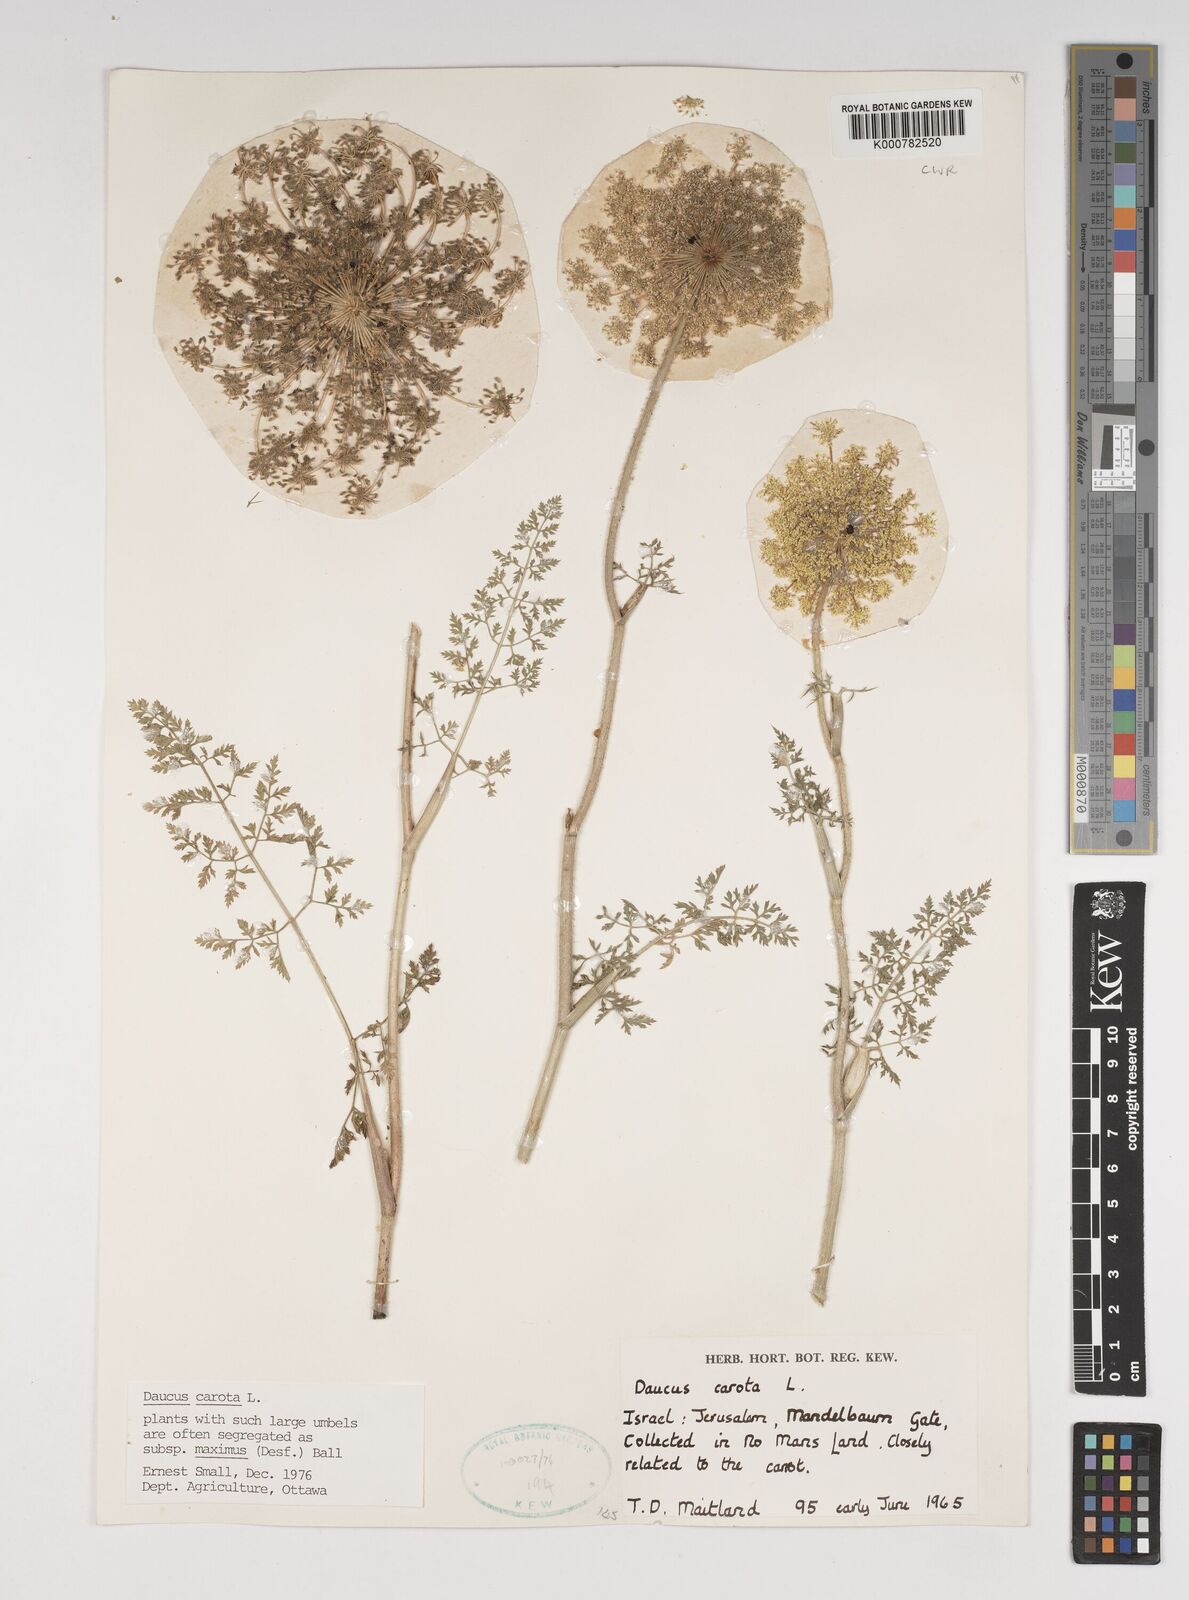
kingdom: Plantae
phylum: Tracheophyta
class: Magnoliopsida
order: Apiales
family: Apiaceae
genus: Daucus
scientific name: Daucus carota
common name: Wild carrot
